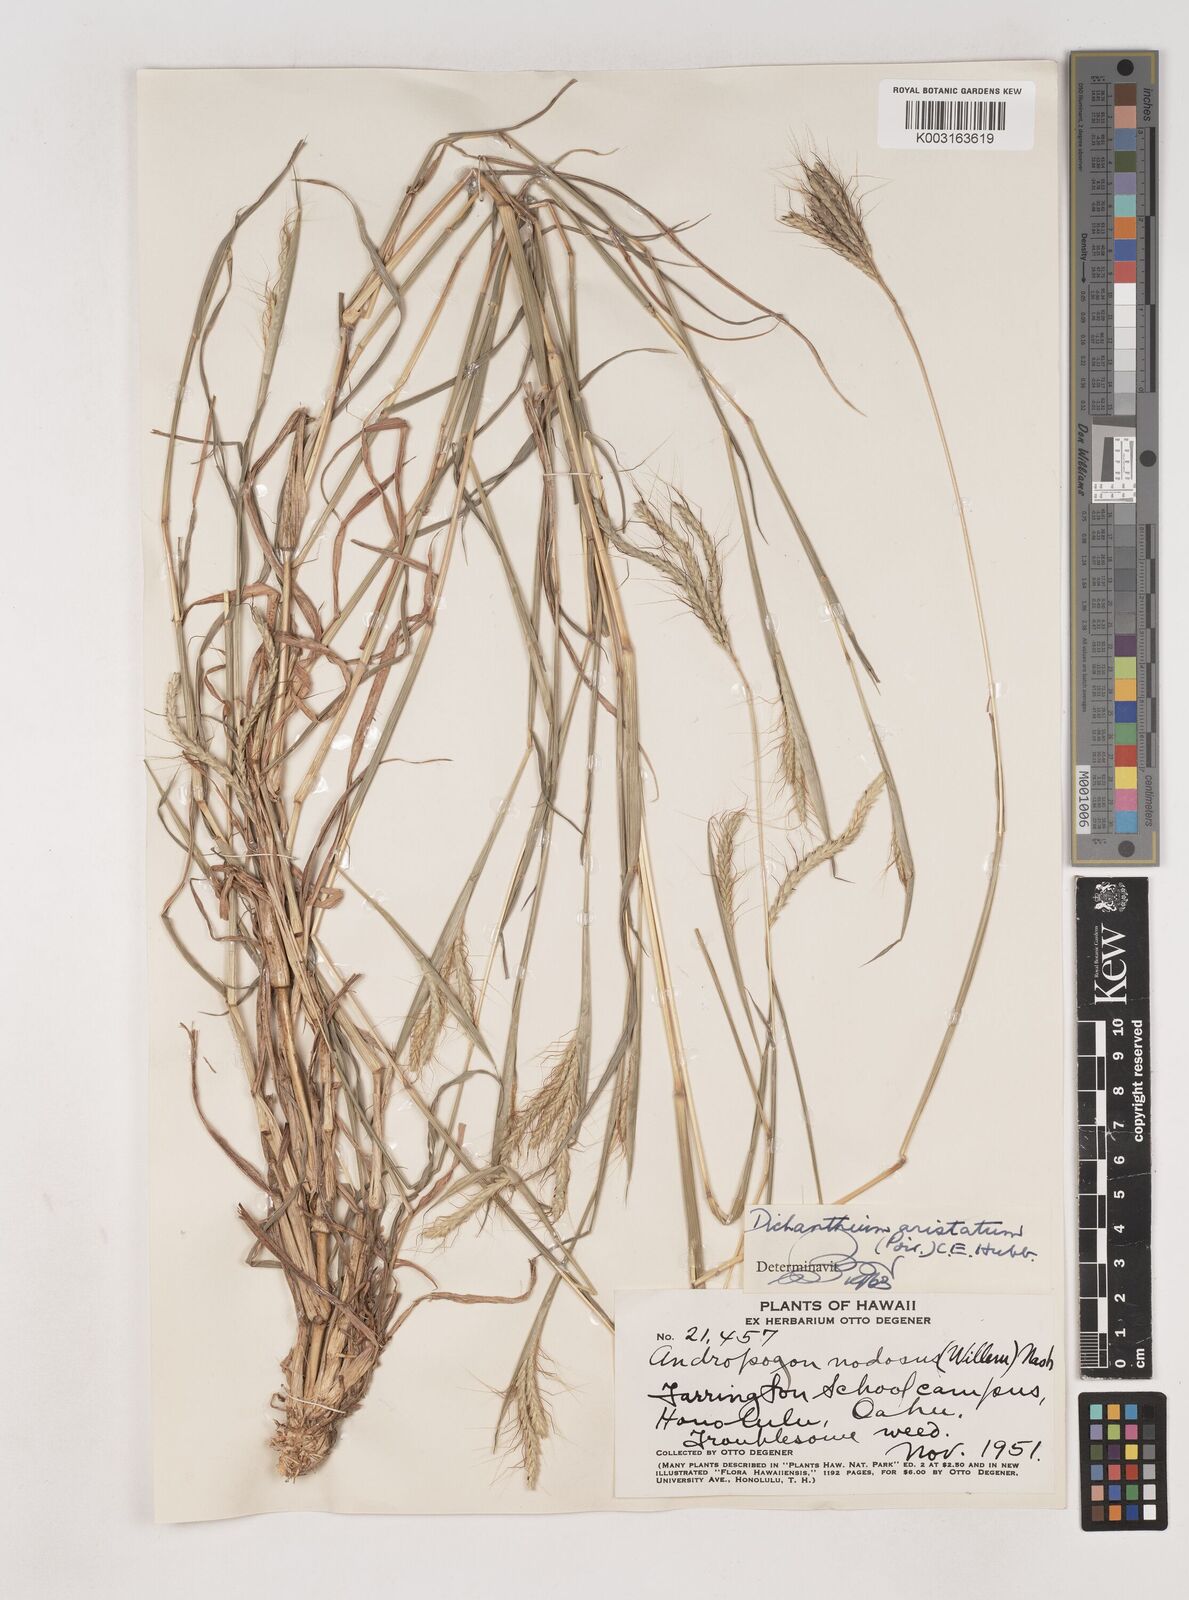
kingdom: Plantae
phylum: Tracheophyta
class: Liliopsida
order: Poales
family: Poaceae
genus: Dichanthium
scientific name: Dichanthium aristatum
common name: Angleton bluestem
